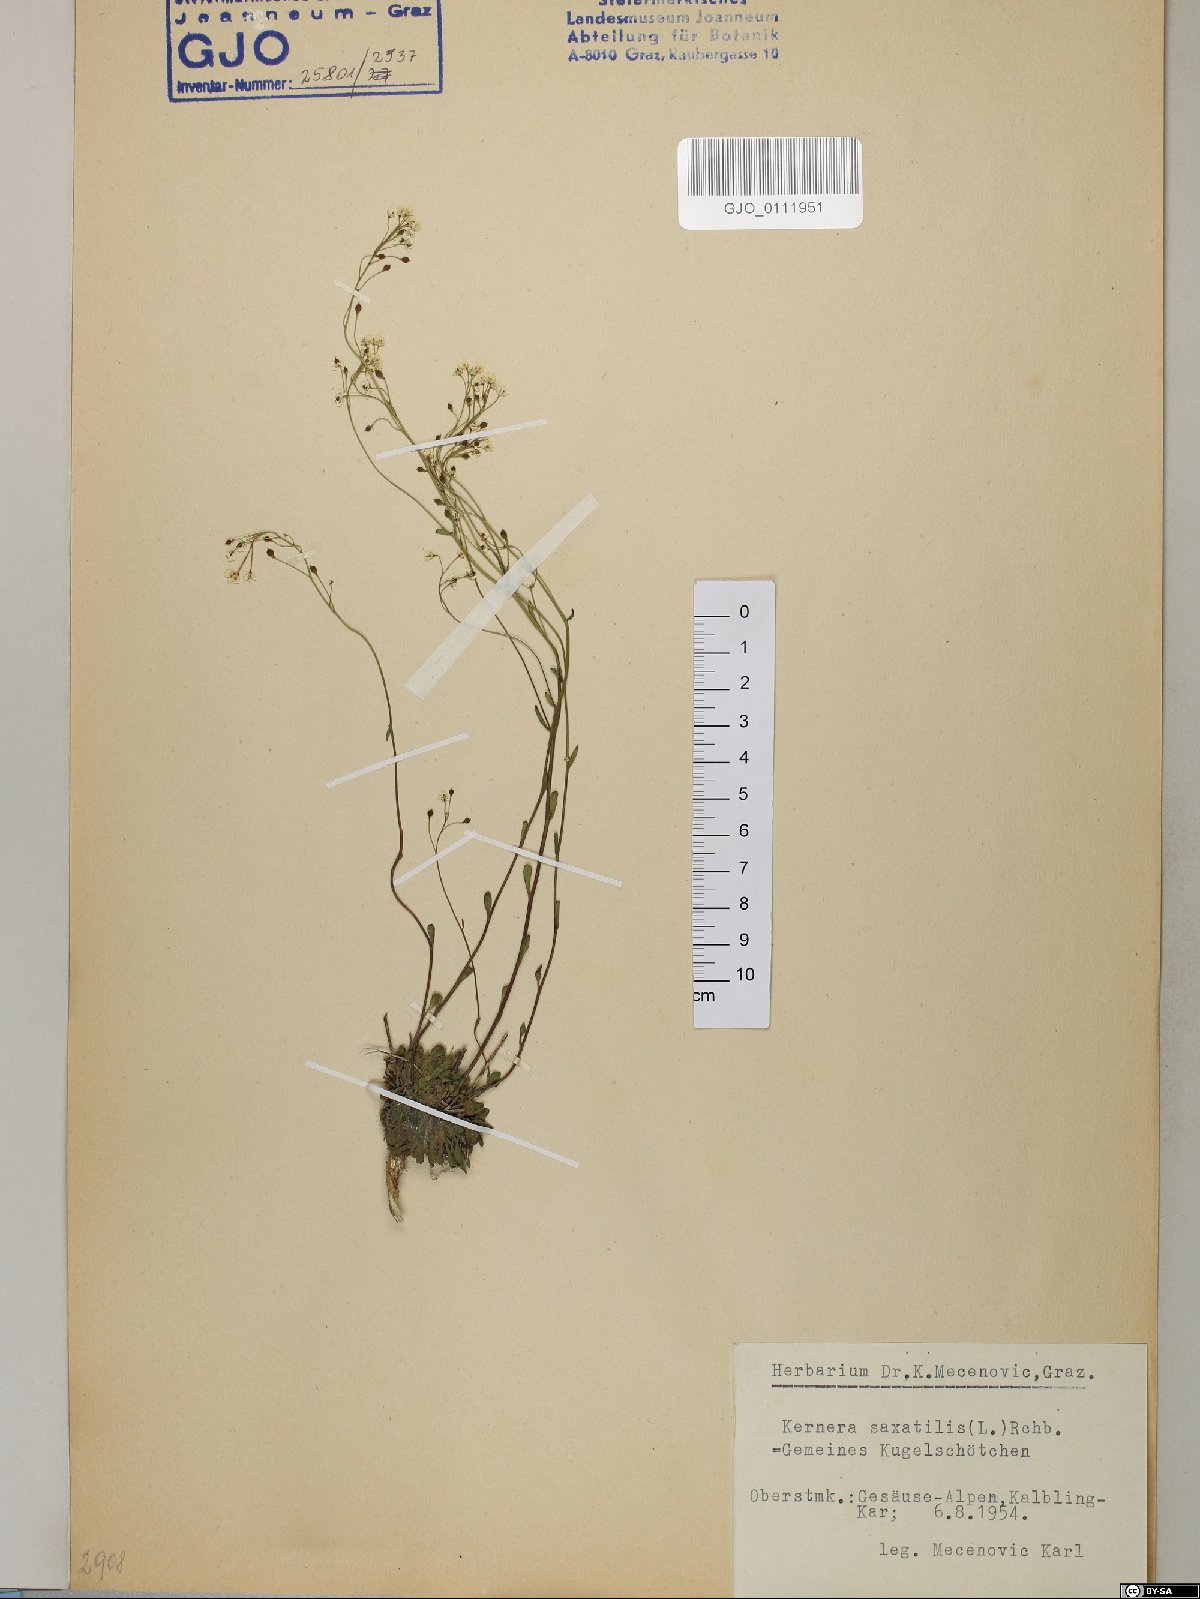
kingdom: Plantae
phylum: Tracheophyta
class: Magnoliopsida
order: Brassicales
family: Brassicaceae
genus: Kernera
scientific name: Kernera saxatilis
